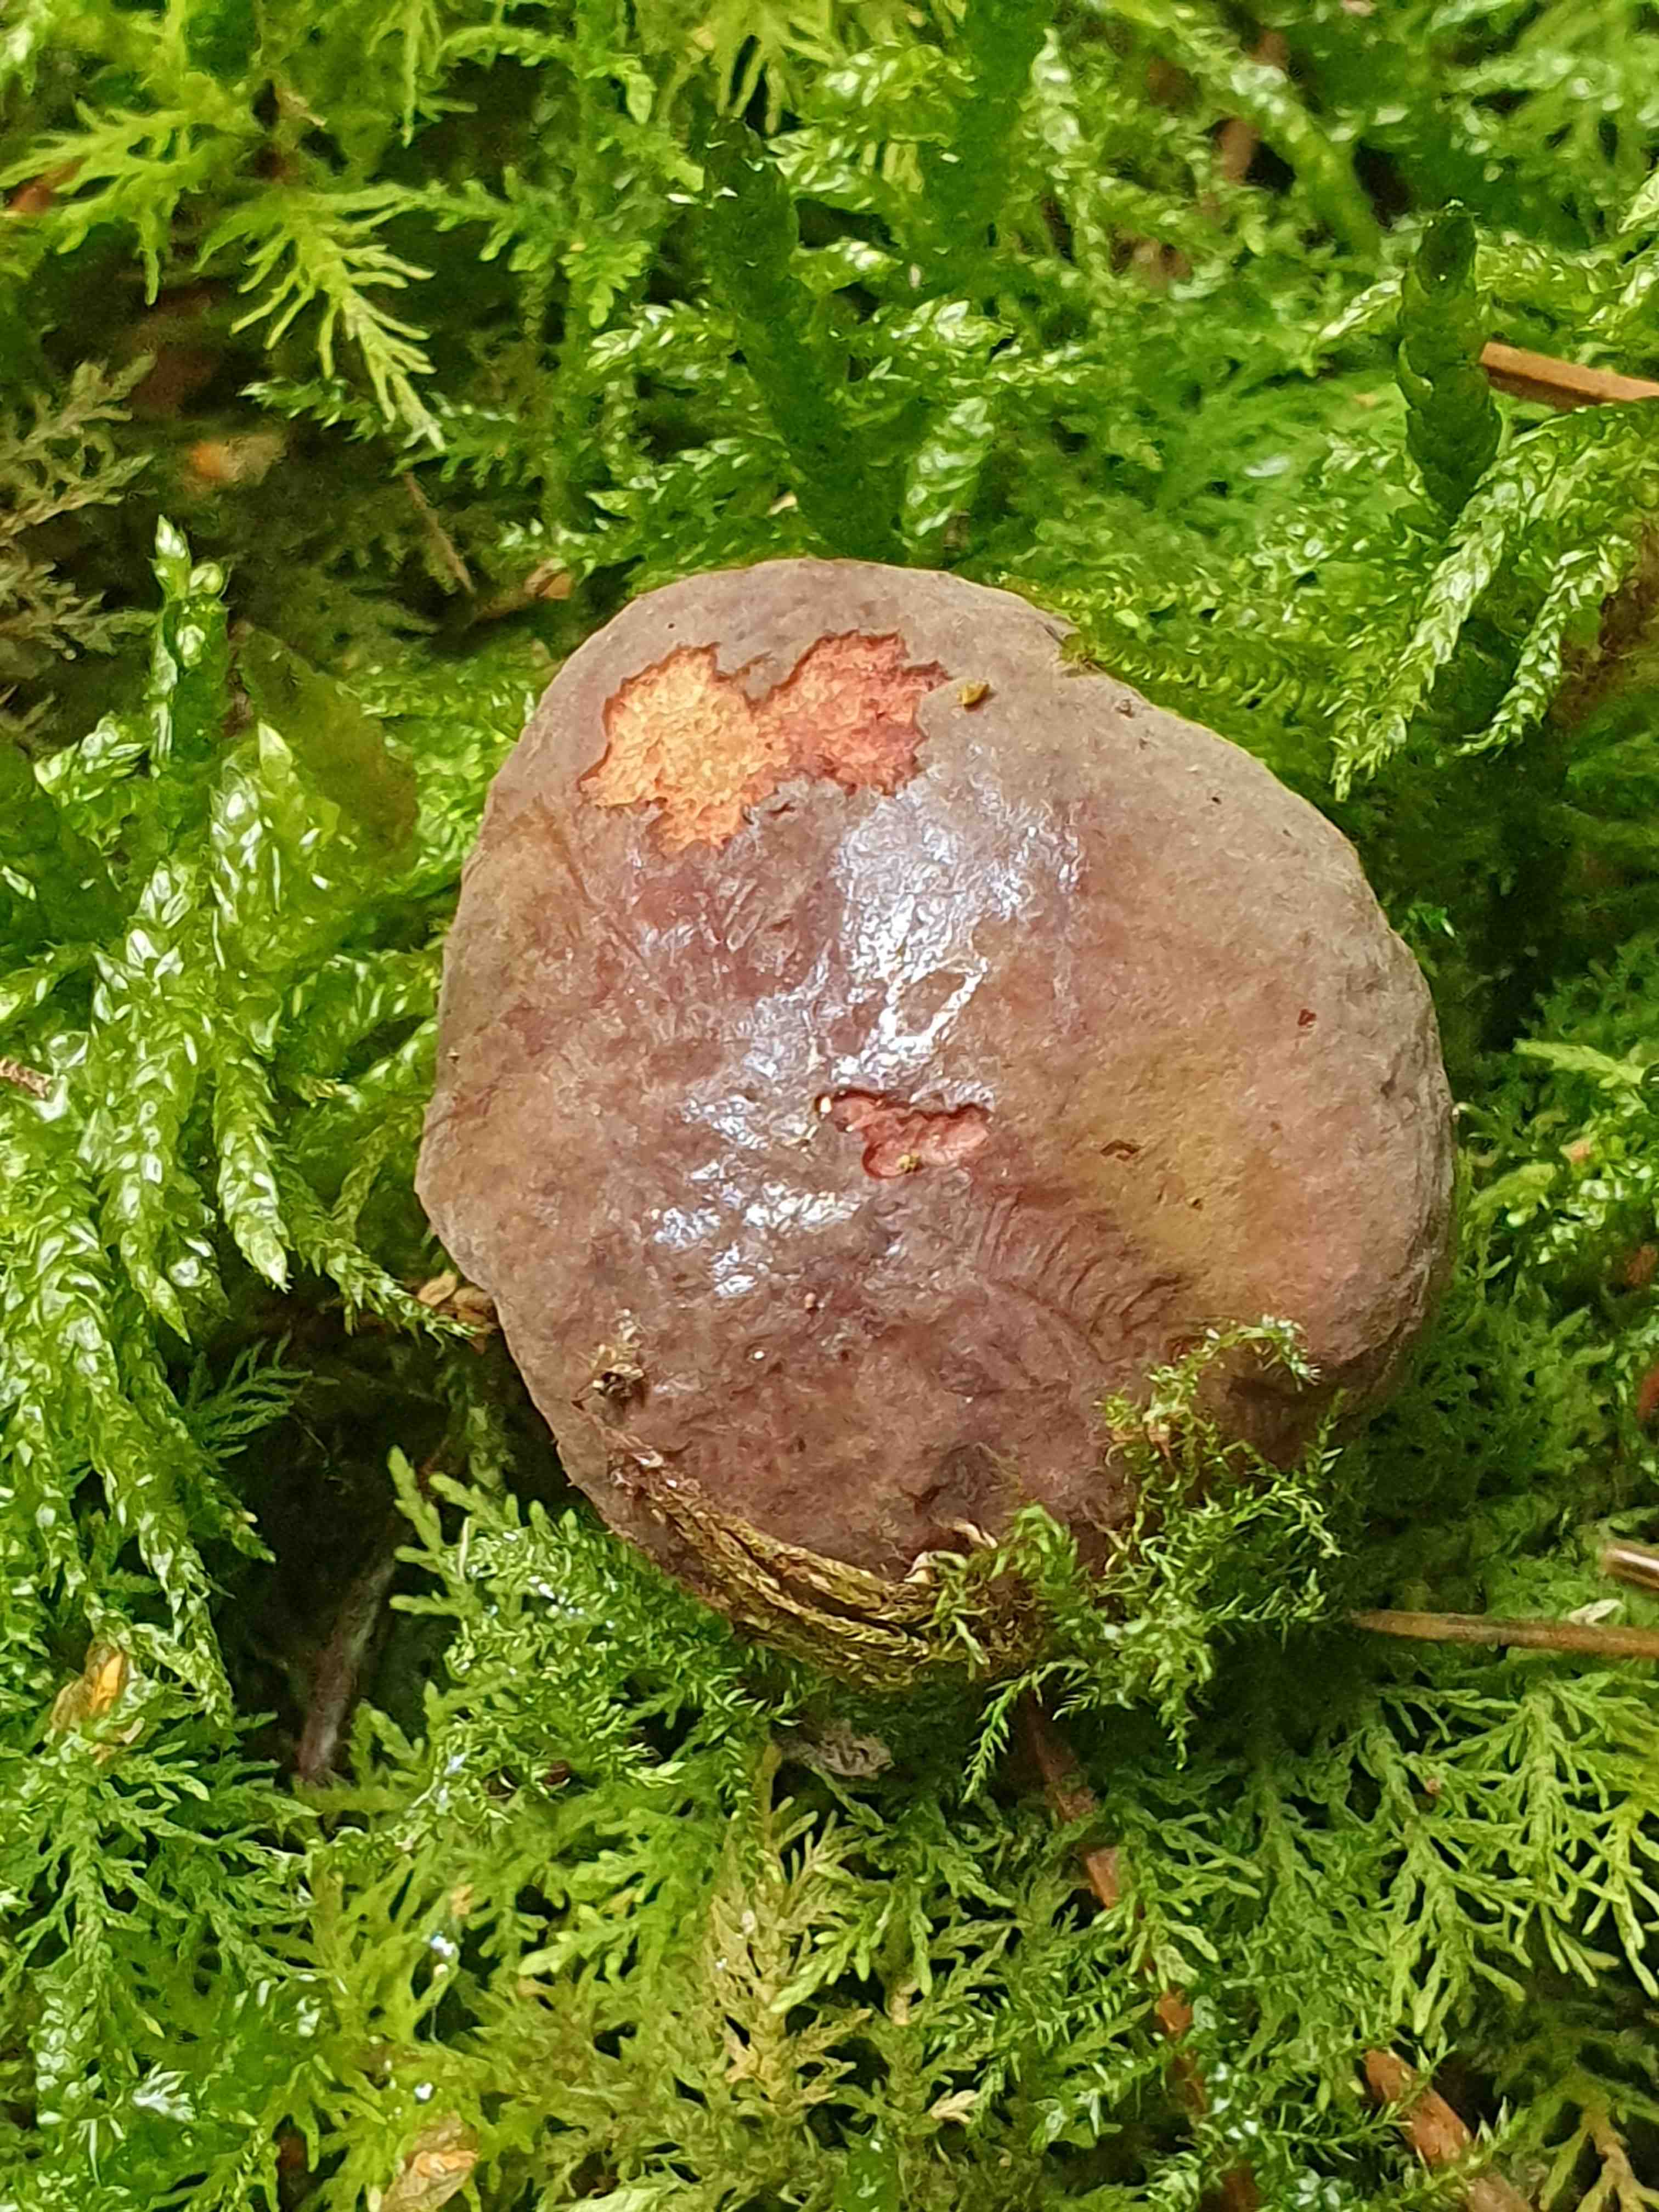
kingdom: Fungi
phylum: Basidiomycota
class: Agaricomycetes
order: Boletales
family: Boletaceae
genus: Xerocomellus
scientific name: Xerocomellus pruinatus
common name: dugget rørhat
